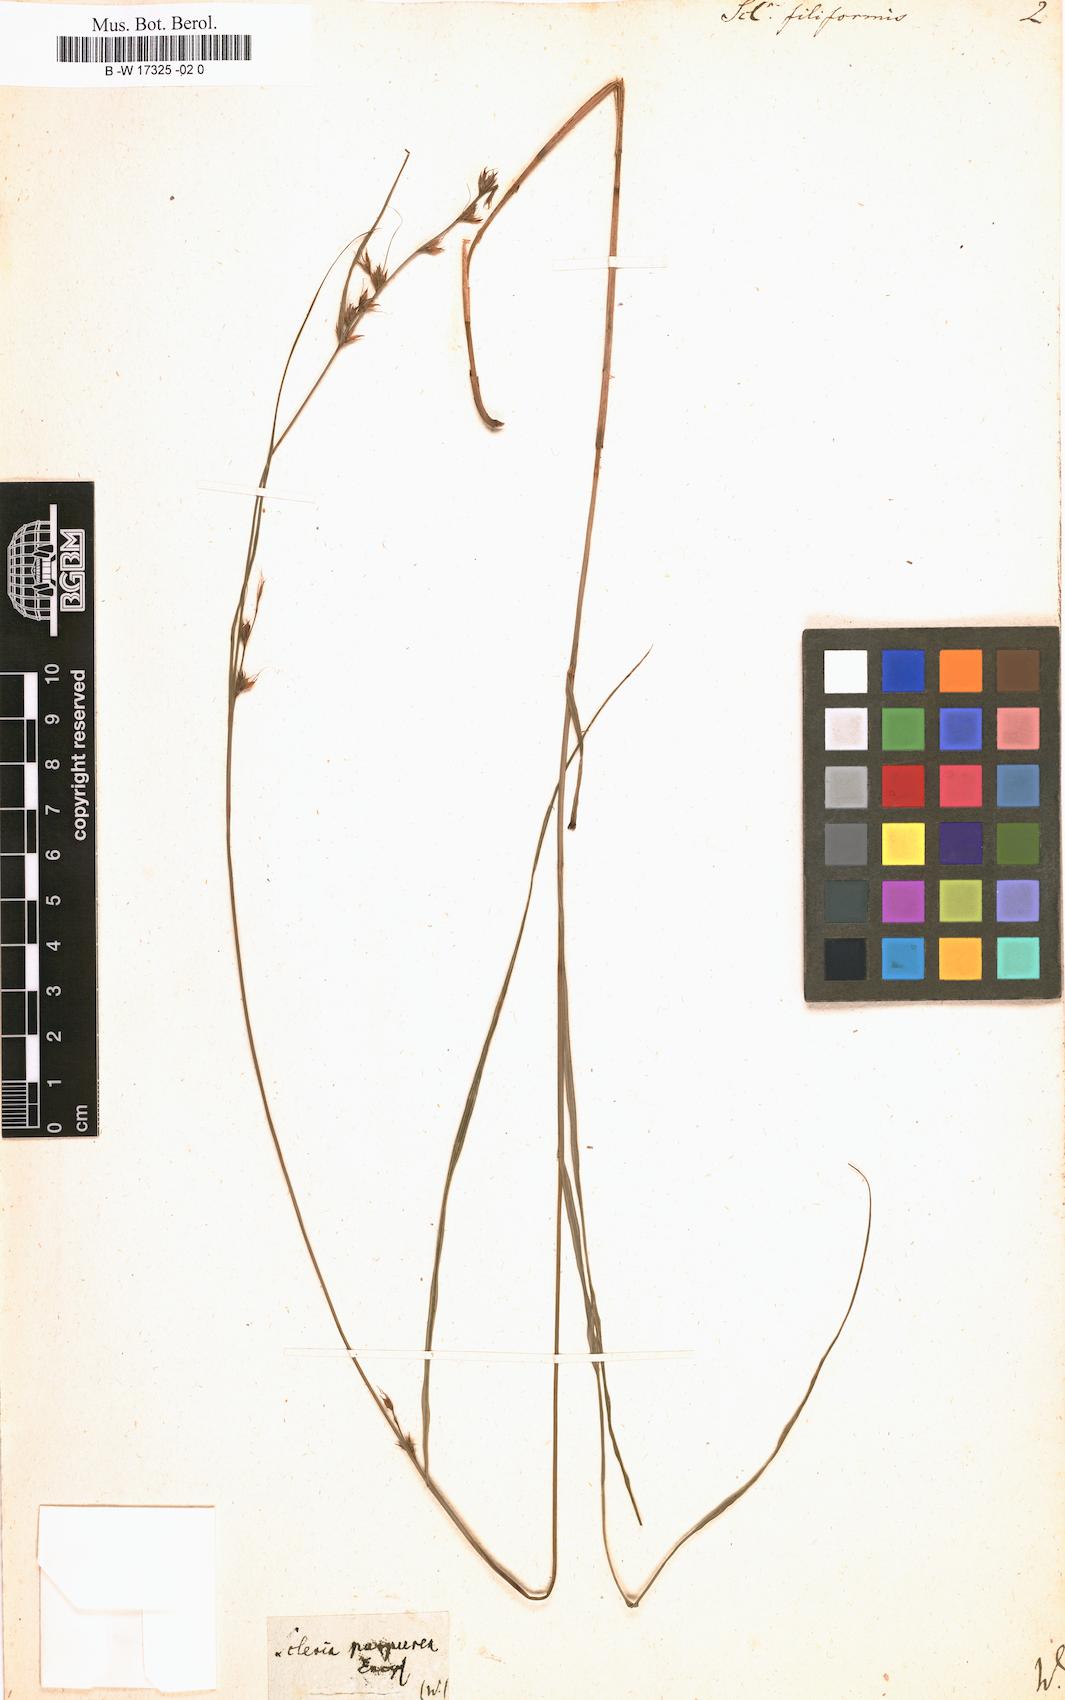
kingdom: Plantae
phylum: Tracheophyta
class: Liliopsida
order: Poales
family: Cyperaceae
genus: Scleria
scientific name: Scleria lithosperma
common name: Florida keys nut-rush
